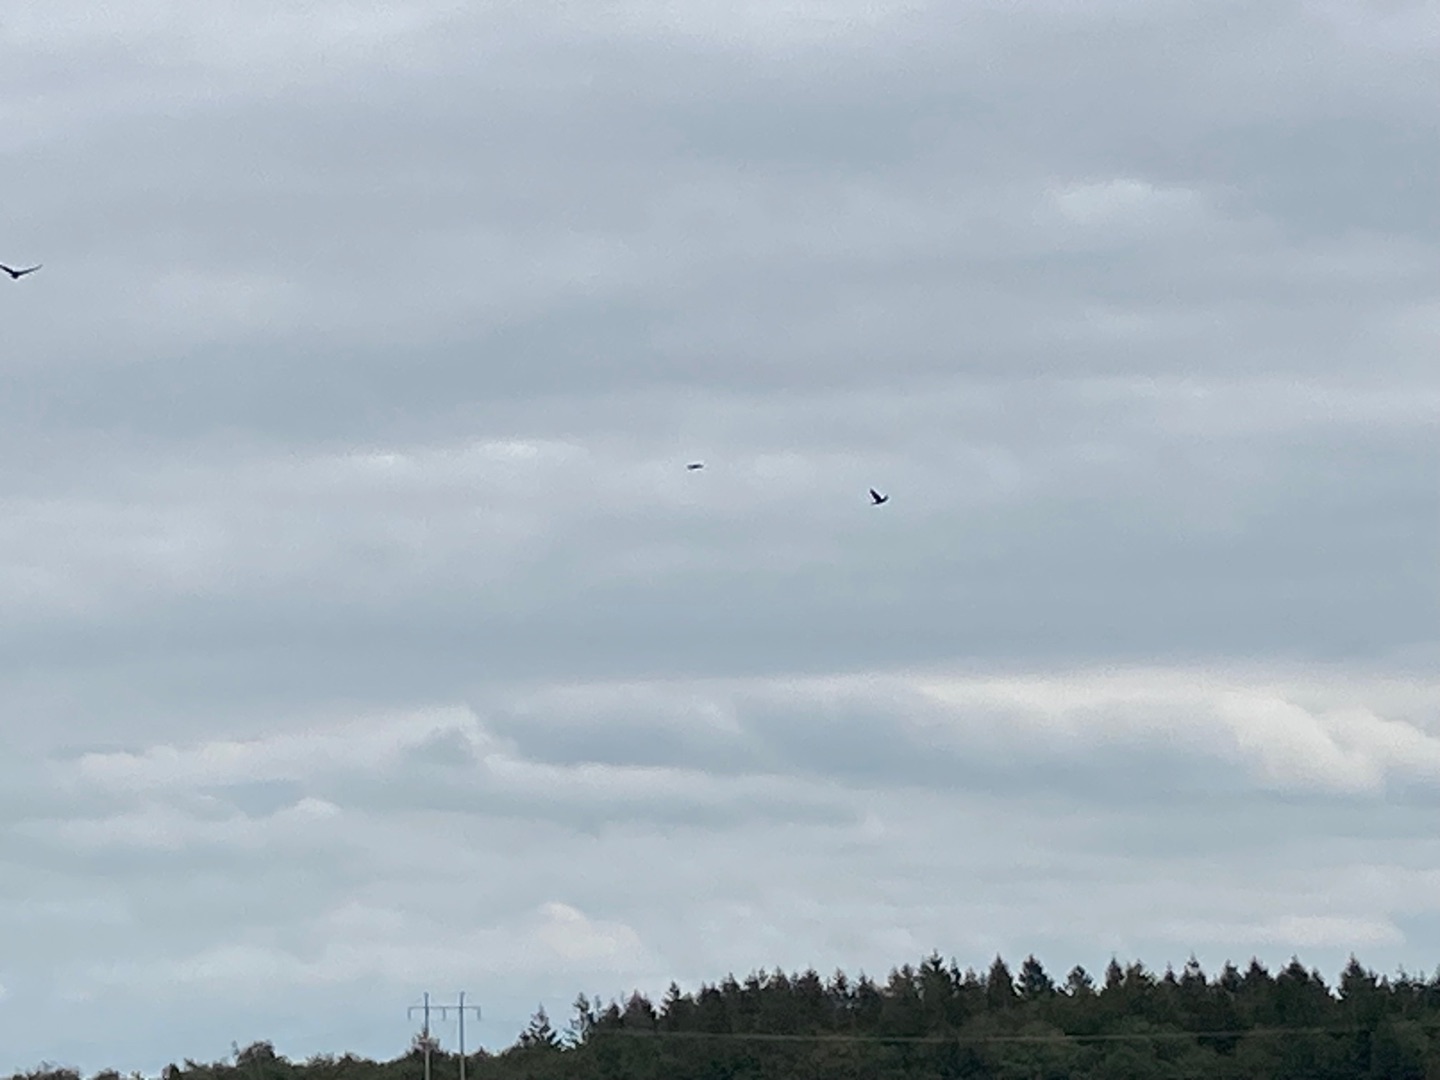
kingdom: Animalia
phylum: Chordata
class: Aves
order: Passeriformes
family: Corvidae
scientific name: Corvidae
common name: Kragefugle
